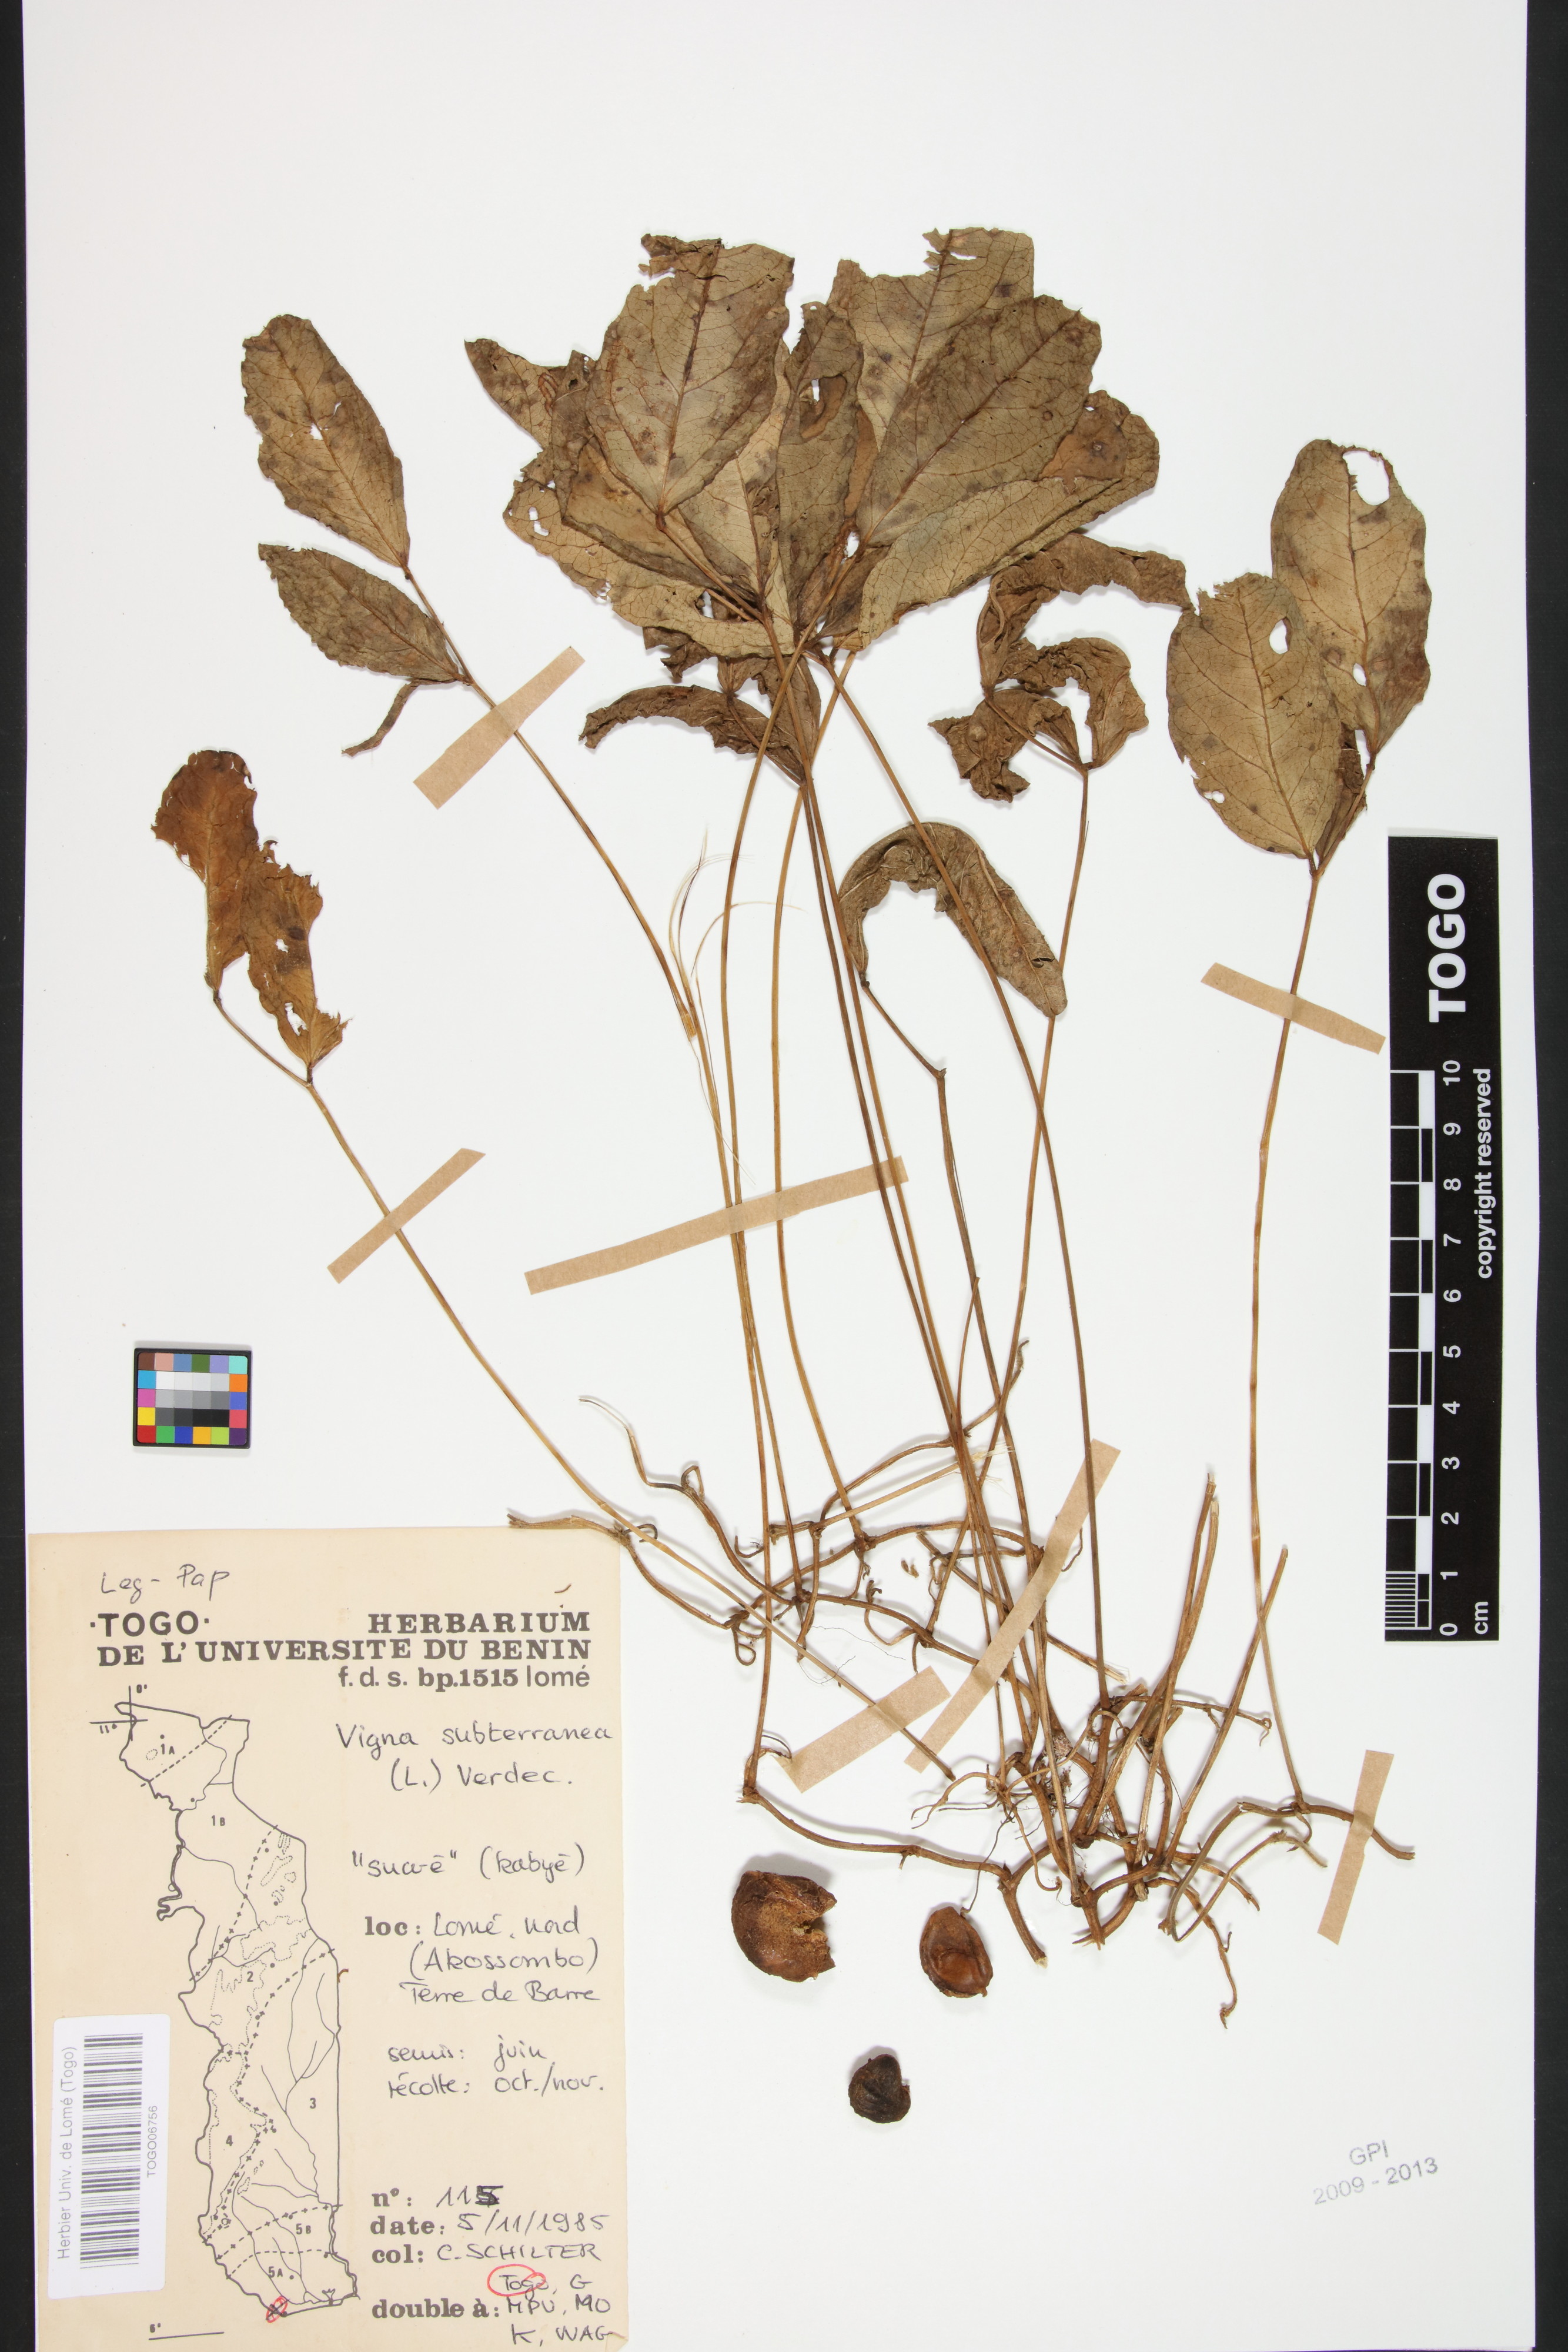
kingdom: Plantae
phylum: Tracheophyta
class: Magnoliopsida
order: Fabales
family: Fabaceae
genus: Vigna
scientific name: Vigna subterranea
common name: Bambara groundnut
